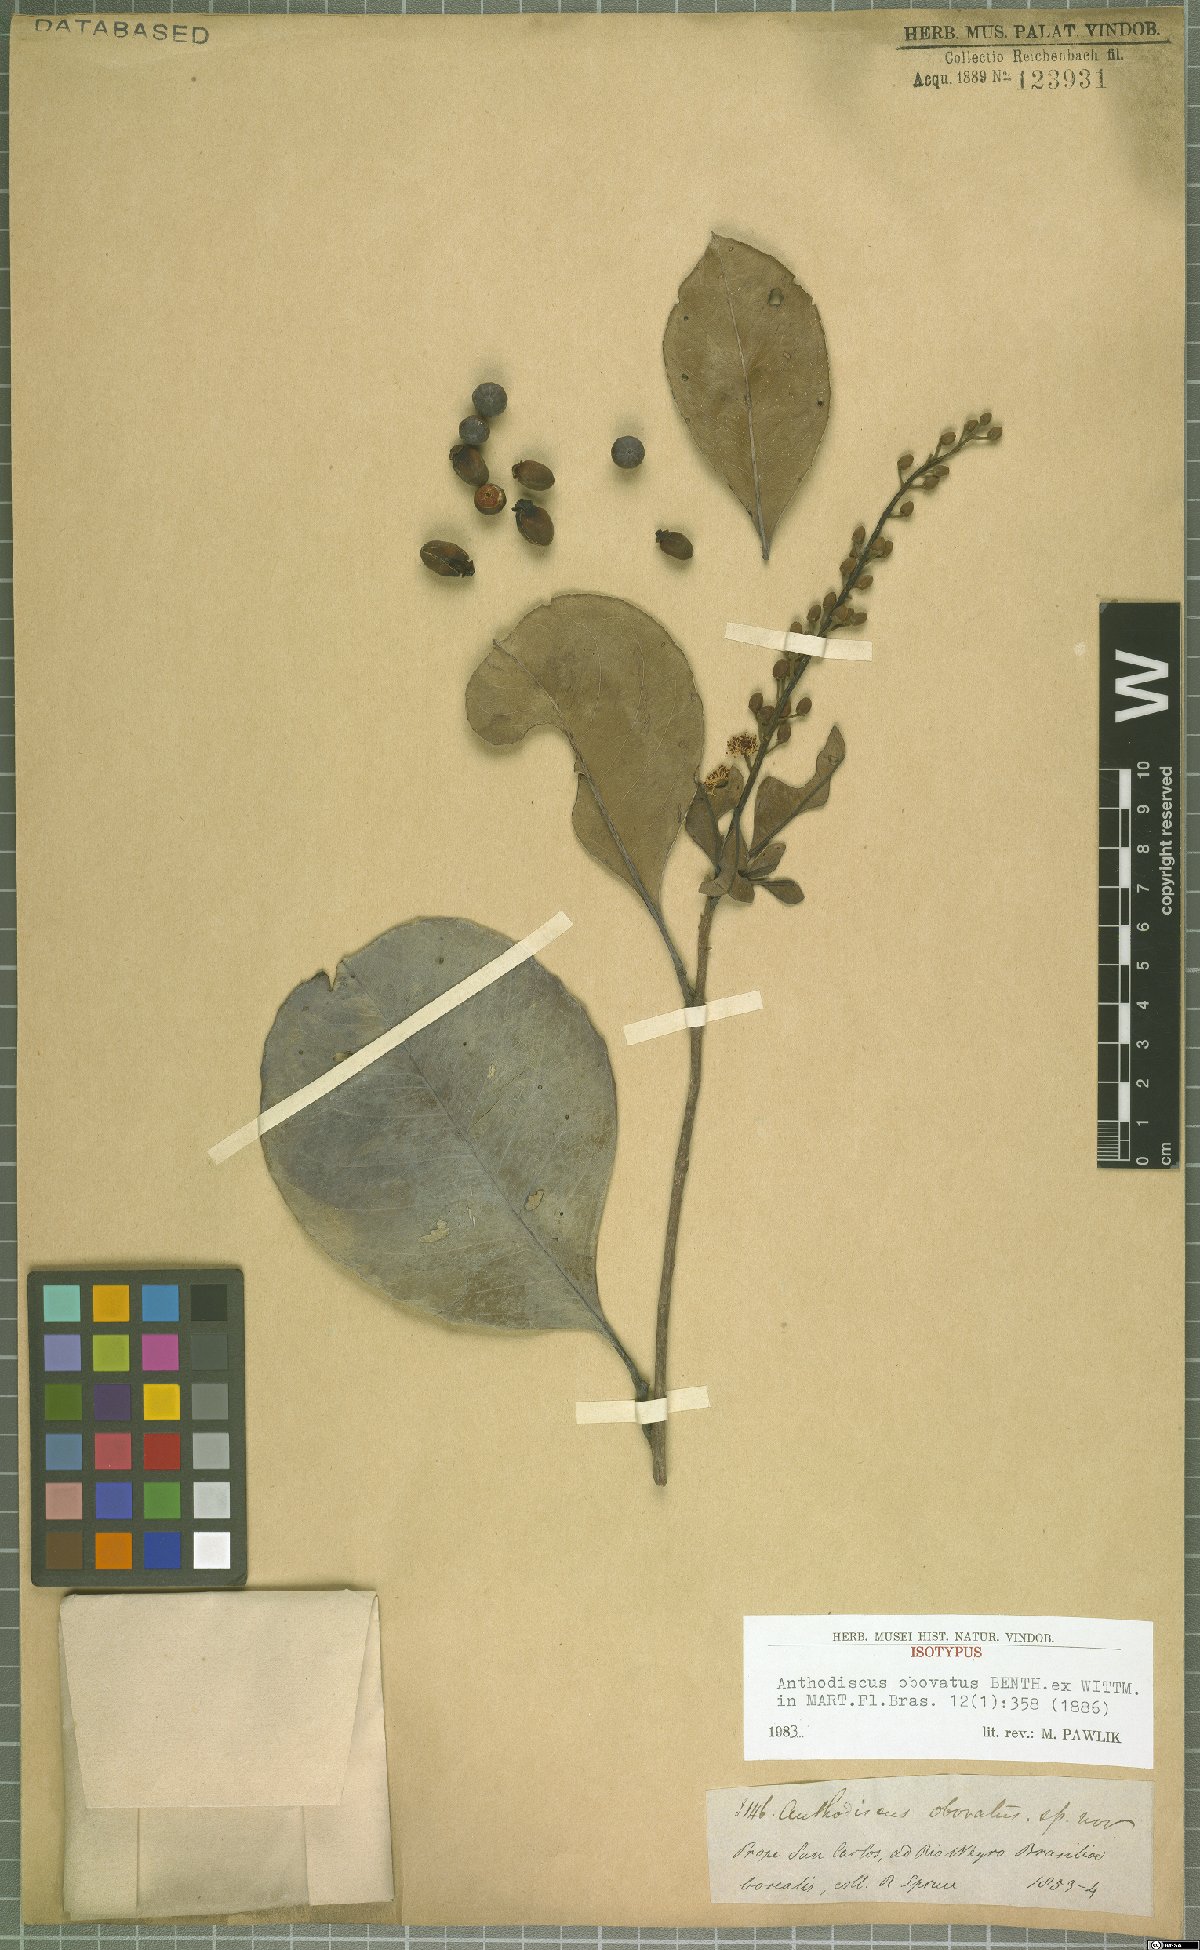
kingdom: Plantae
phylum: Tracheophyta
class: Magnoliopsida
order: Malpighiales
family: Caryocaraceae
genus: Anthodiscus
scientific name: Anthodiscus obovatus
